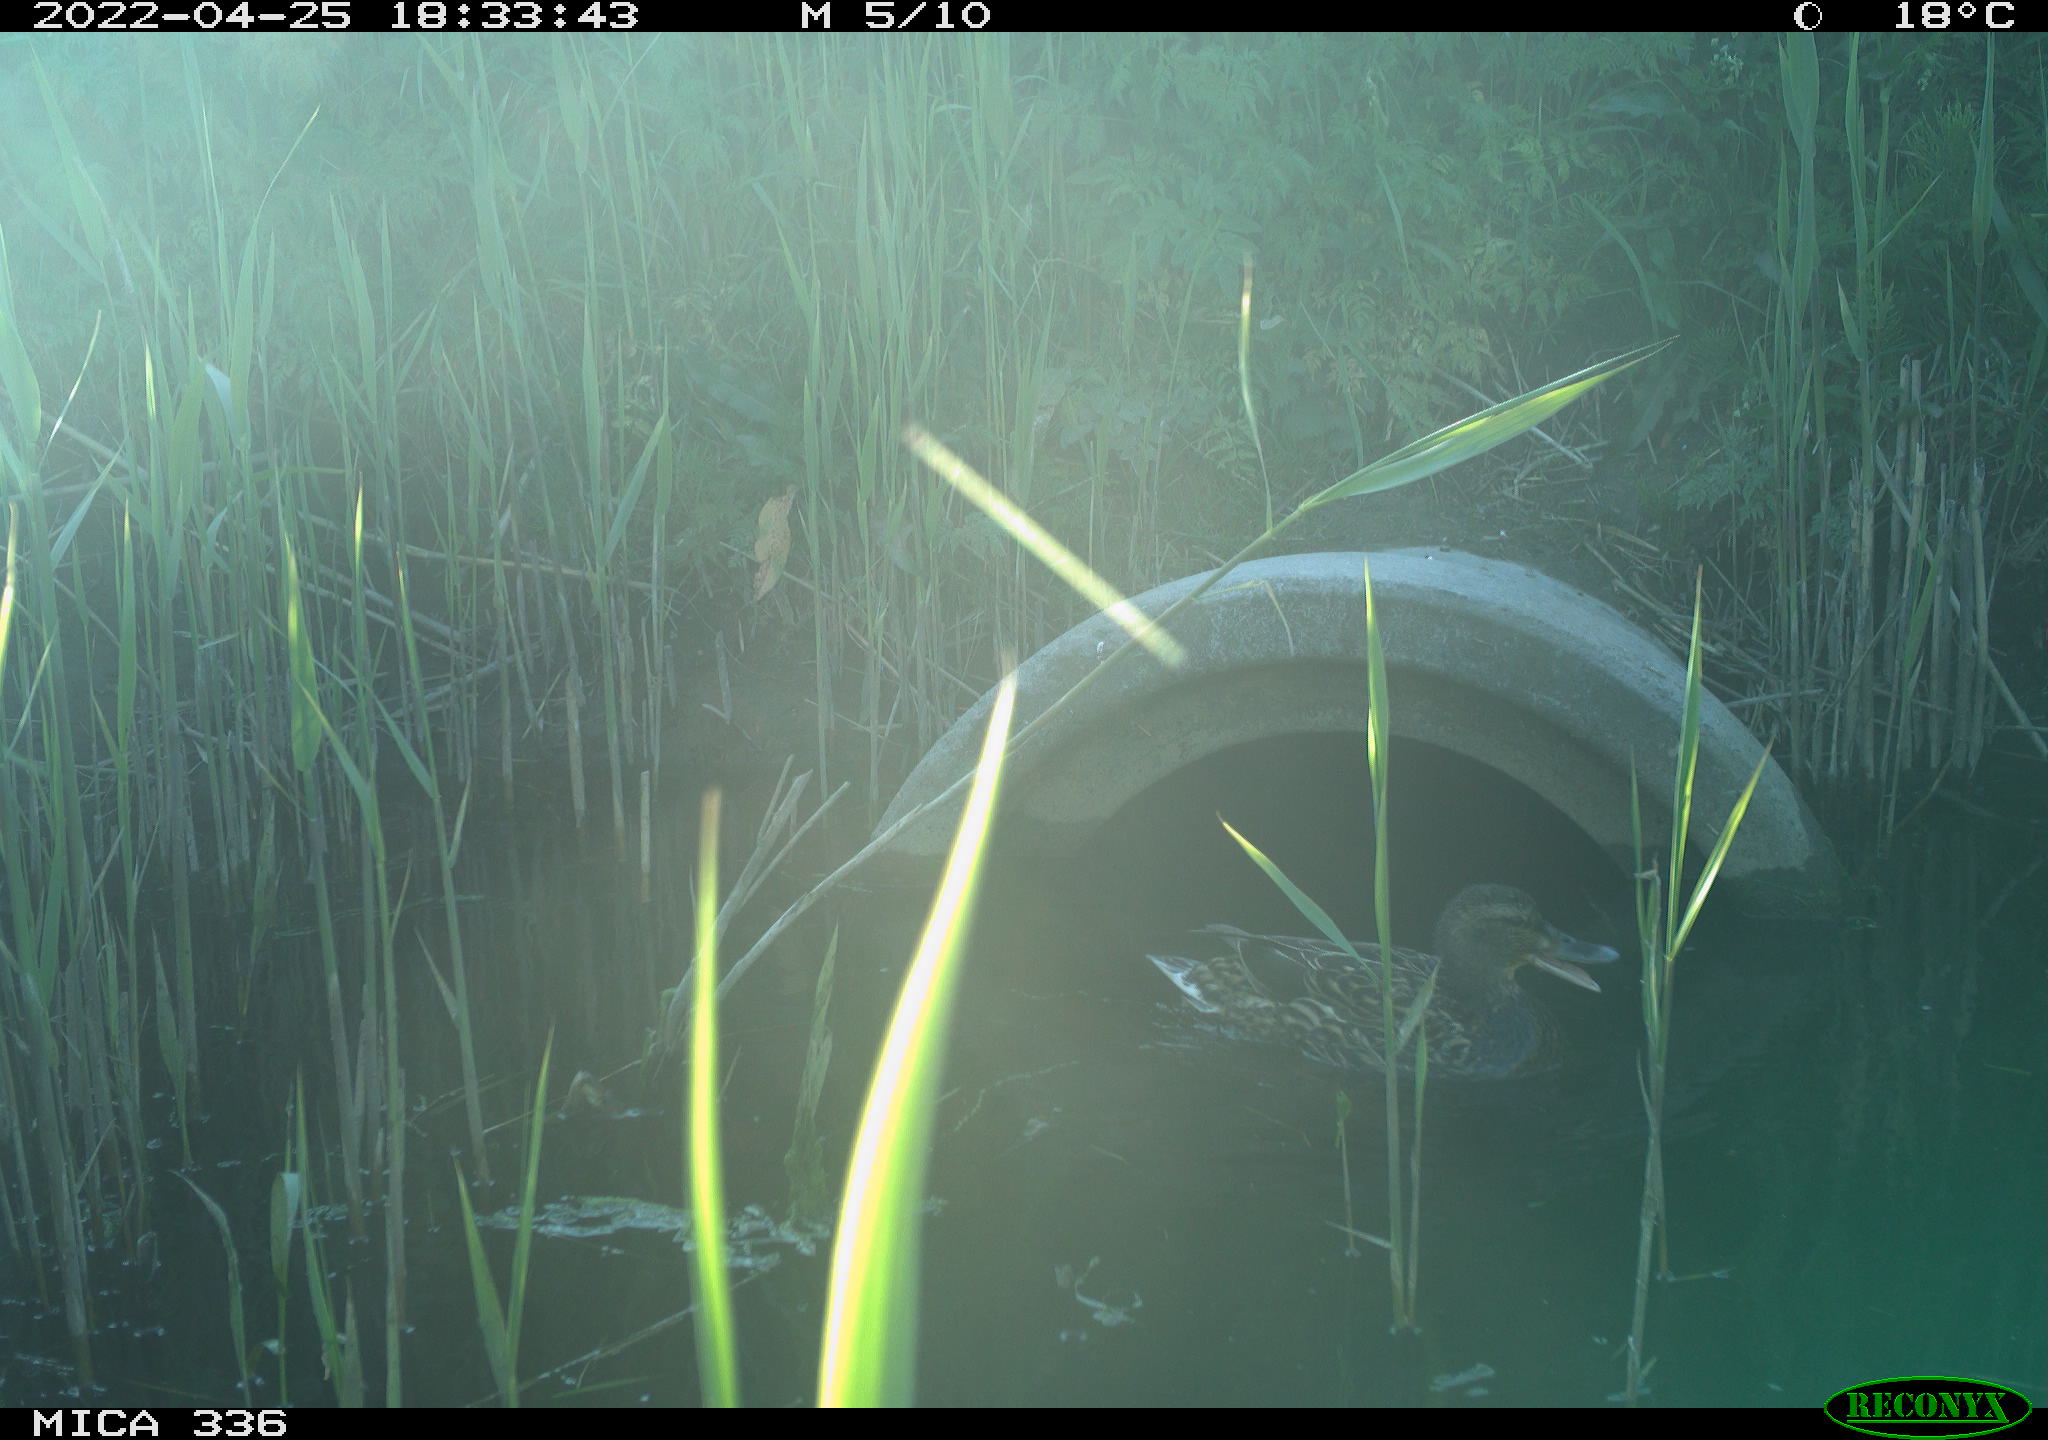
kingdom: Animalia
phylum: Chordata
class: Aves
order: Anseriformes
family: Anatidae
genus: Anas
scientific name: Anas platyrhynchos
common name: Mallard
